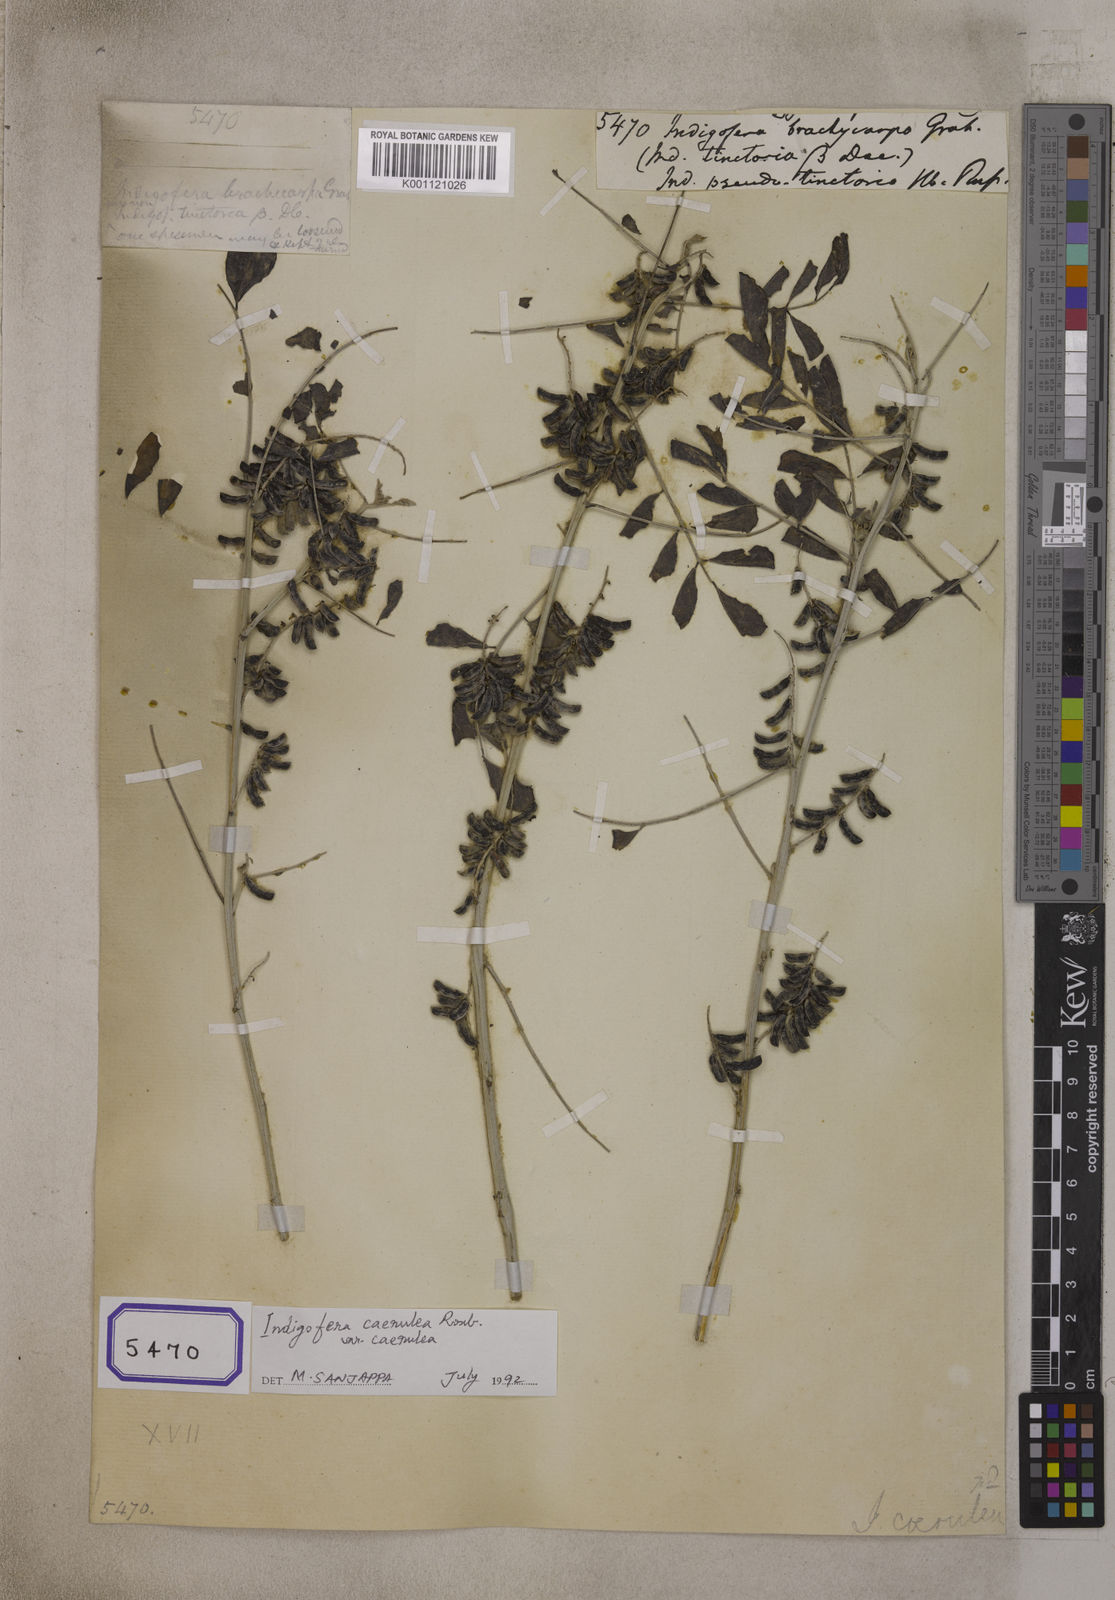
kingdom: Plantae
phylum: Tracheophyta
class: Magnoliopsida
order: Fabales
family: Fabaceae
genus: Indigofera
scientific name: Indigofera coerulea
